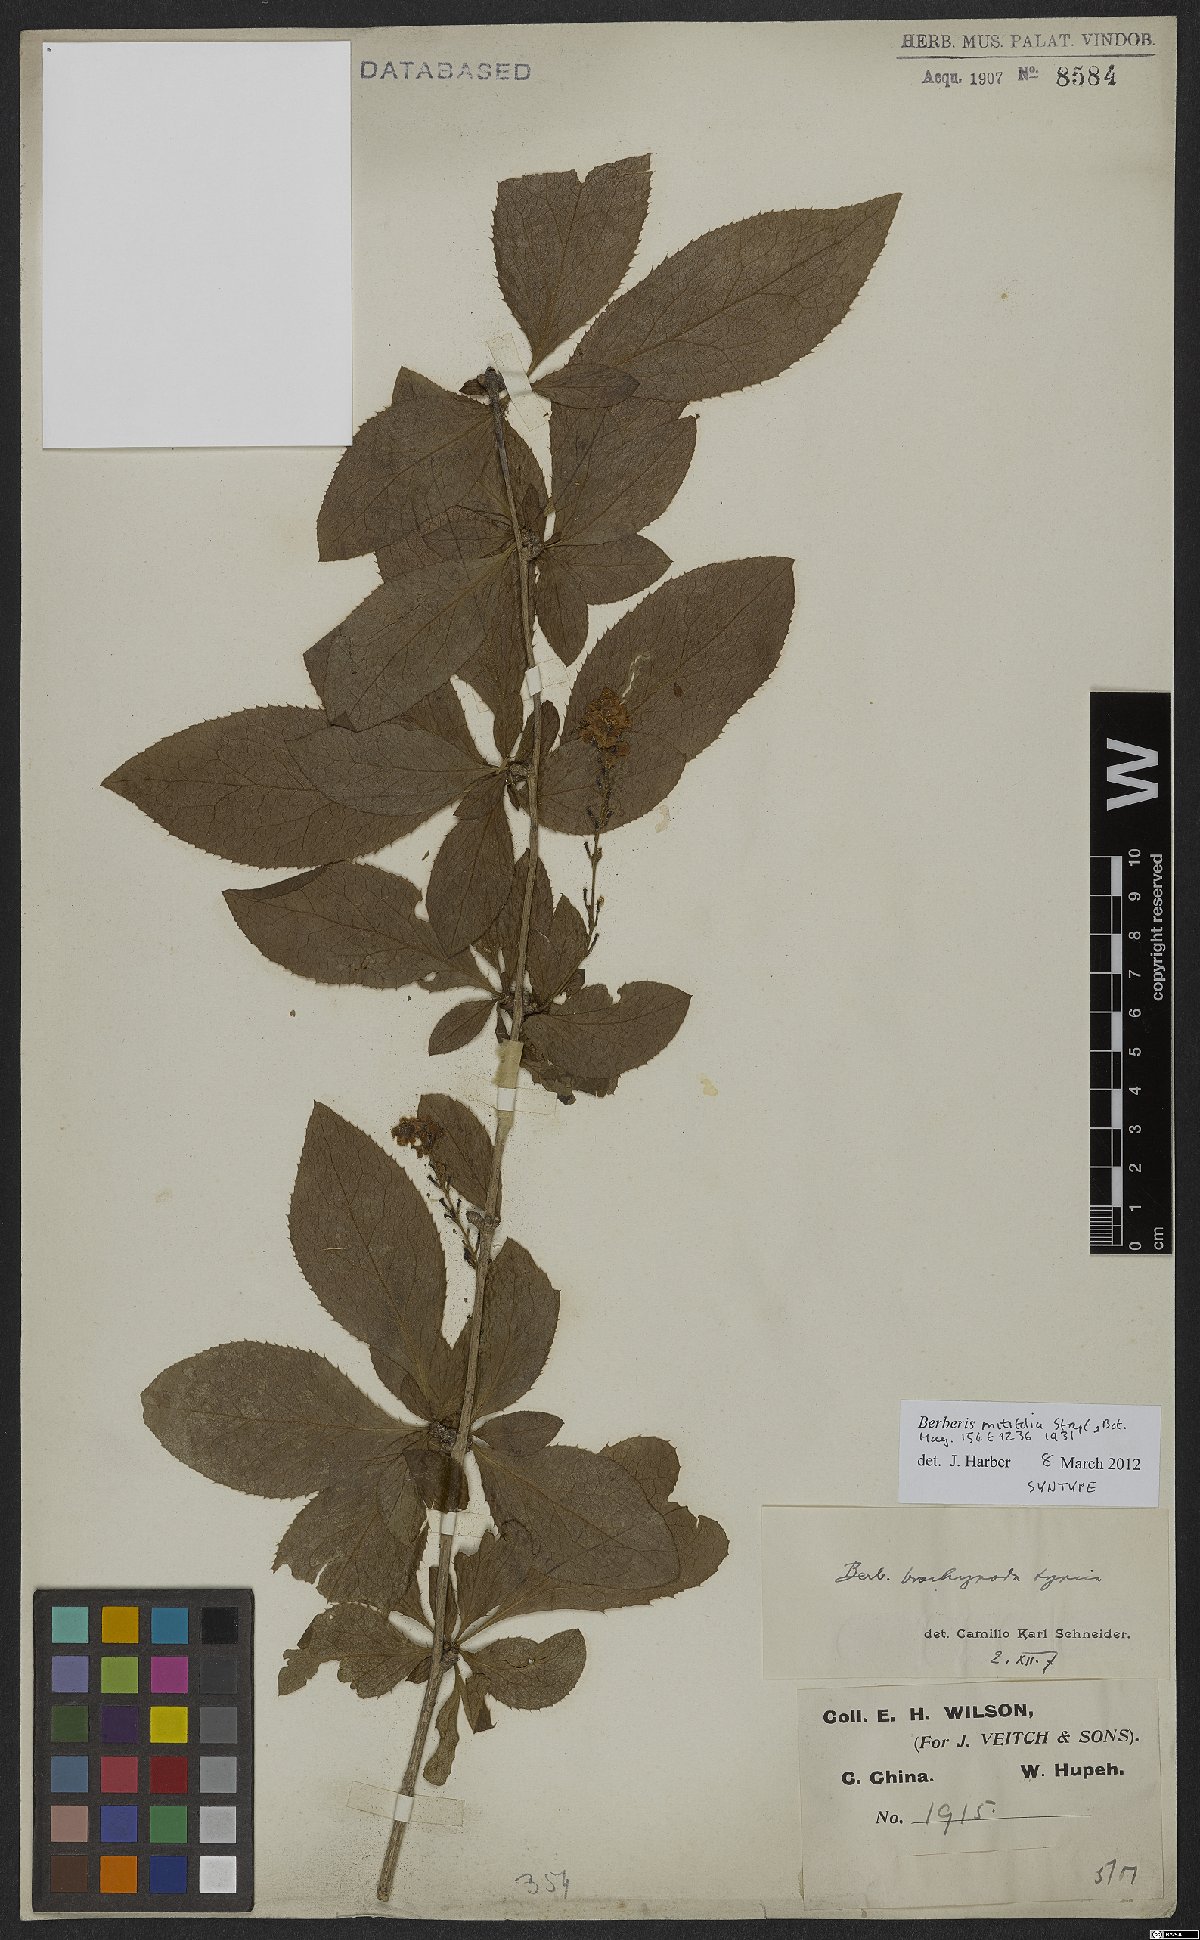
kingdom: Plantae
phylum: Tracheophyta
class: Magnoliopsida
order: Ranunculales
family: Berberidaceae
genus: Berberis
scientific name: Berberis subsessiliflora
